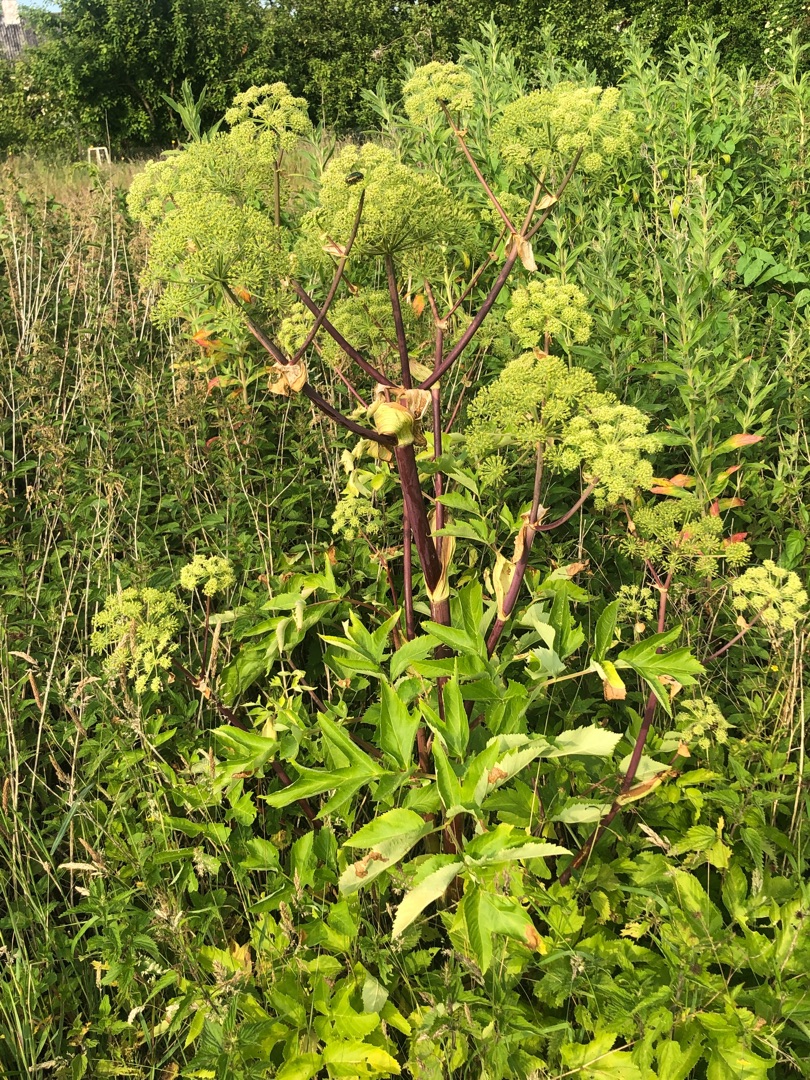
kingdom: Plantae
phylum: Tracheophyta
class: Magnoliopsida
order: Apiales
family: Apiaceae
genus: Angelica
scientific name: Angelica archangelica
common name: Kvan
